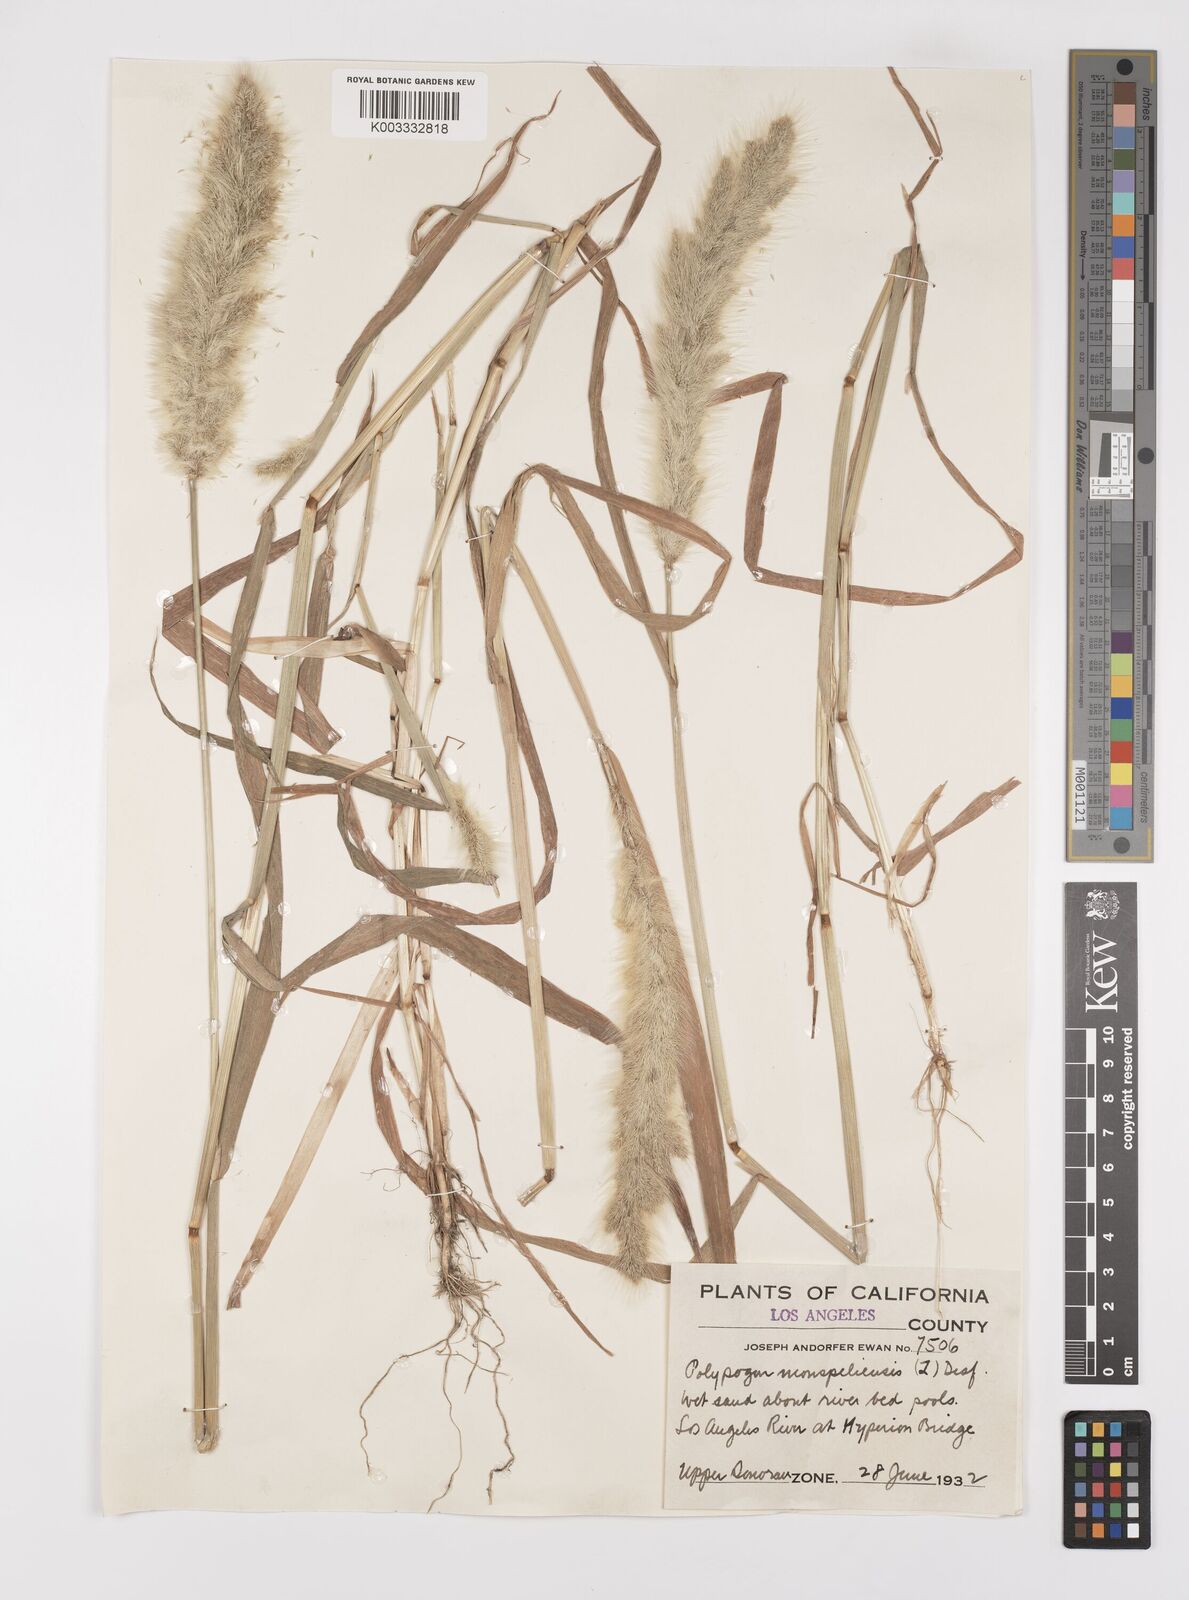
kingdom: Plantae
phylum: Tracheophyta
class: Liliopsida
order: Poales
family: Poaceae
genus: Polypogon
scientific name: Polypogon monspeliensis
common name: Annual rabbitsfoot grass
